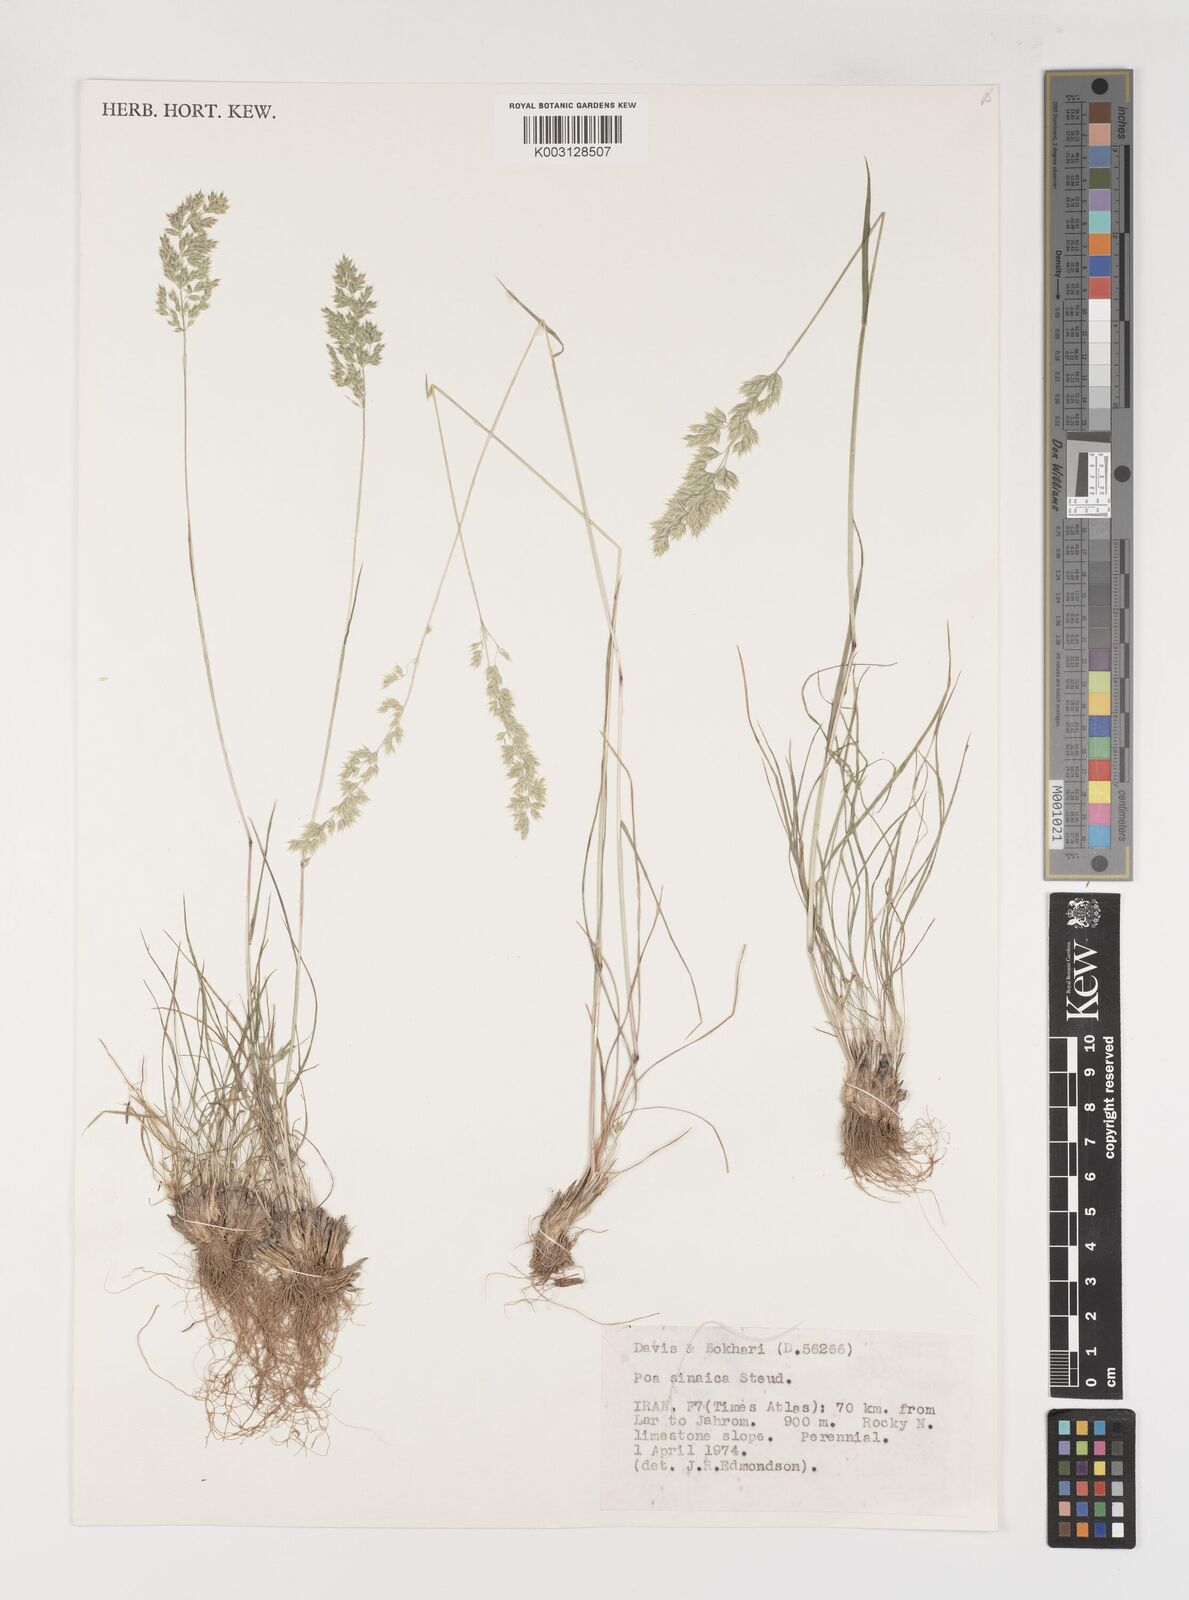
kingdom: Plantae
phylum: Tracheophyta
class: Liliopsida
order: Poales
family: Poaceae
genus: Poa
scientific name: Poa sinaica
